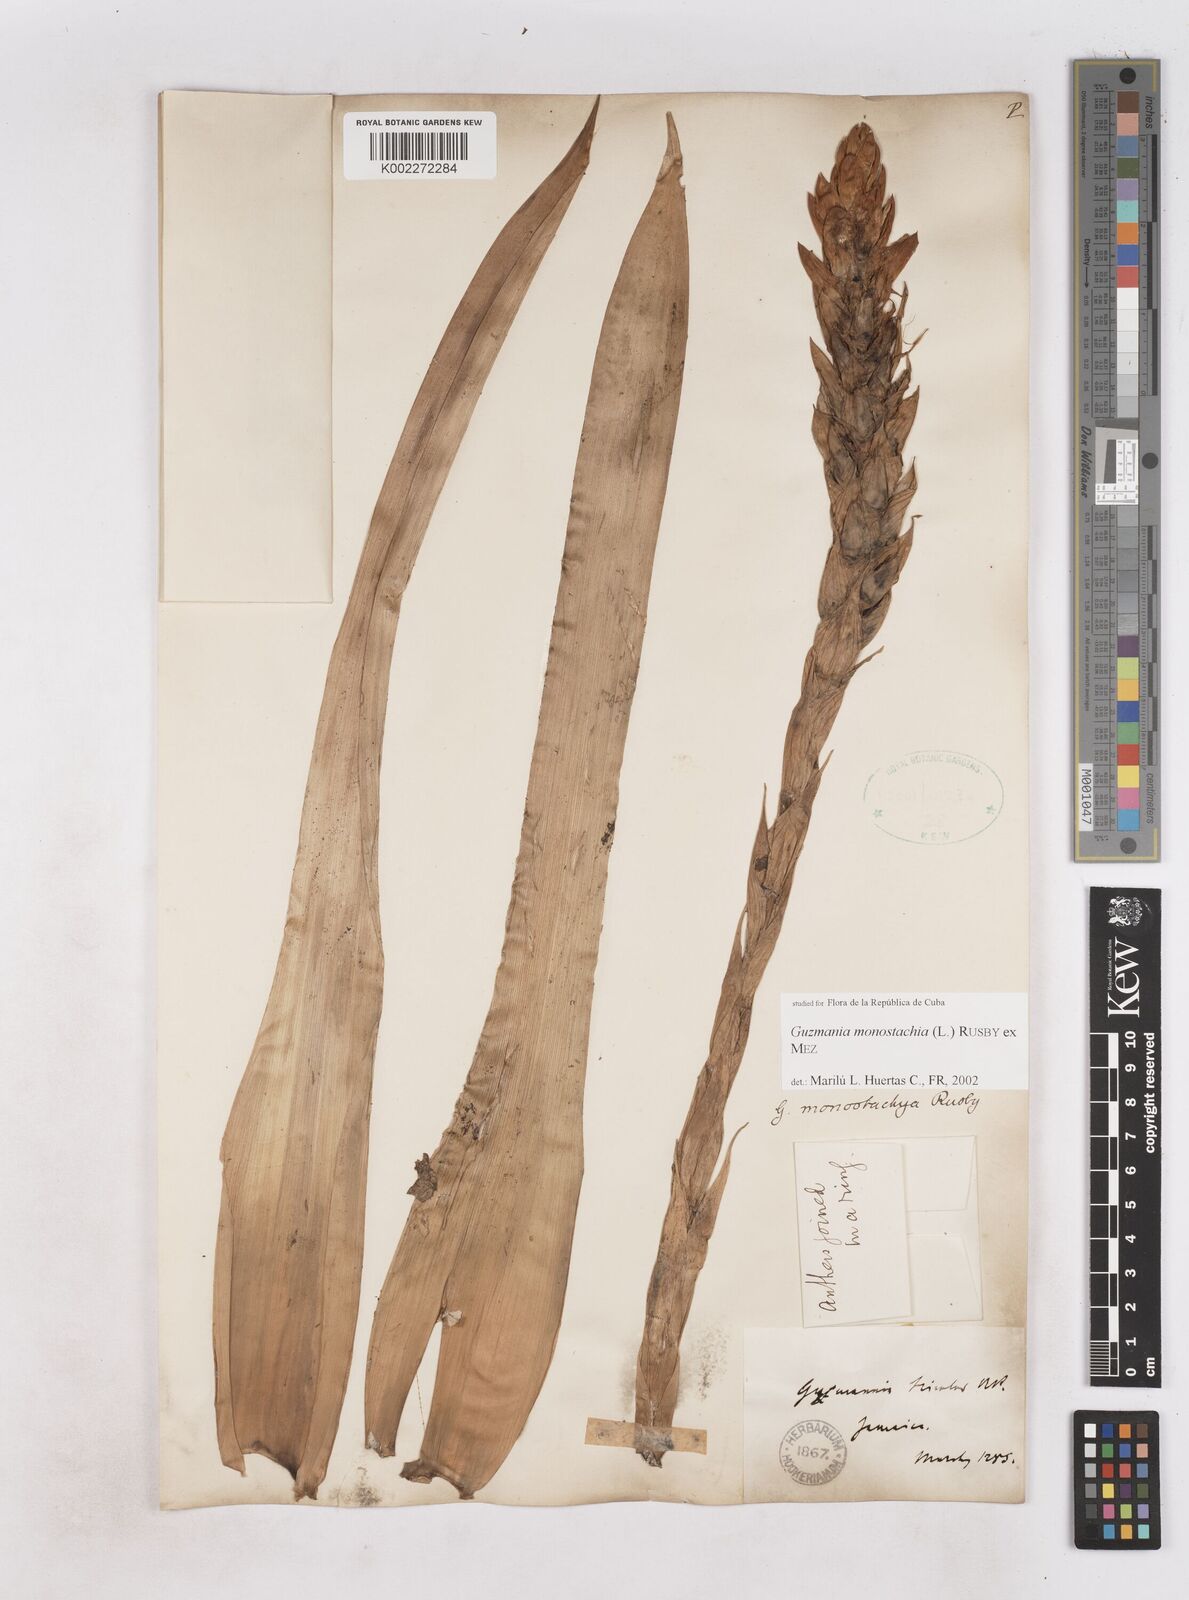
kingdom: Plantae
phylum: Tracheophyta
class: Liliopsida
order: Poales
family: Bromeliaceae
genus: Guzmania
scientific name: Guzmania monostachia
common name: West indian tufted airplant
